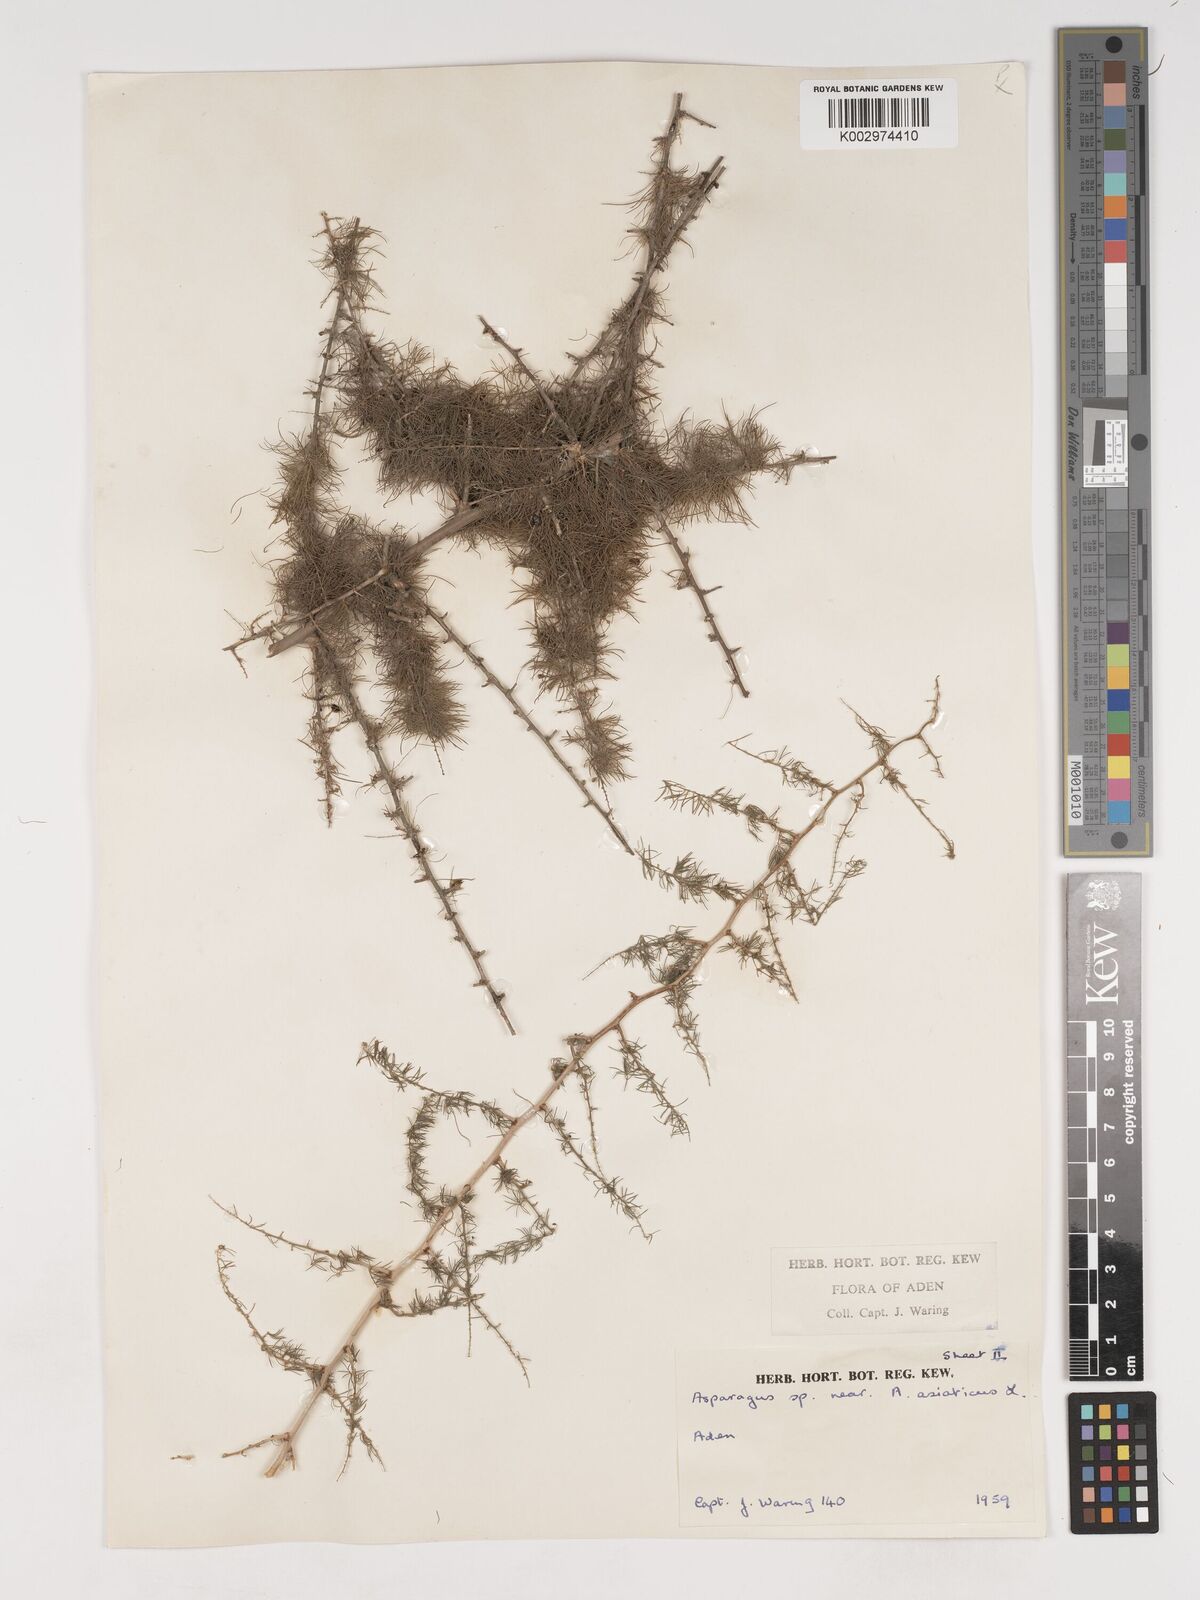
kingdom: Plantae
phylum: Tracheophyta
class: Liliopsida
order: Asparagales
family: Asparagaceae
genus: Asparagus
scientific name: Asparagus asiaticus
